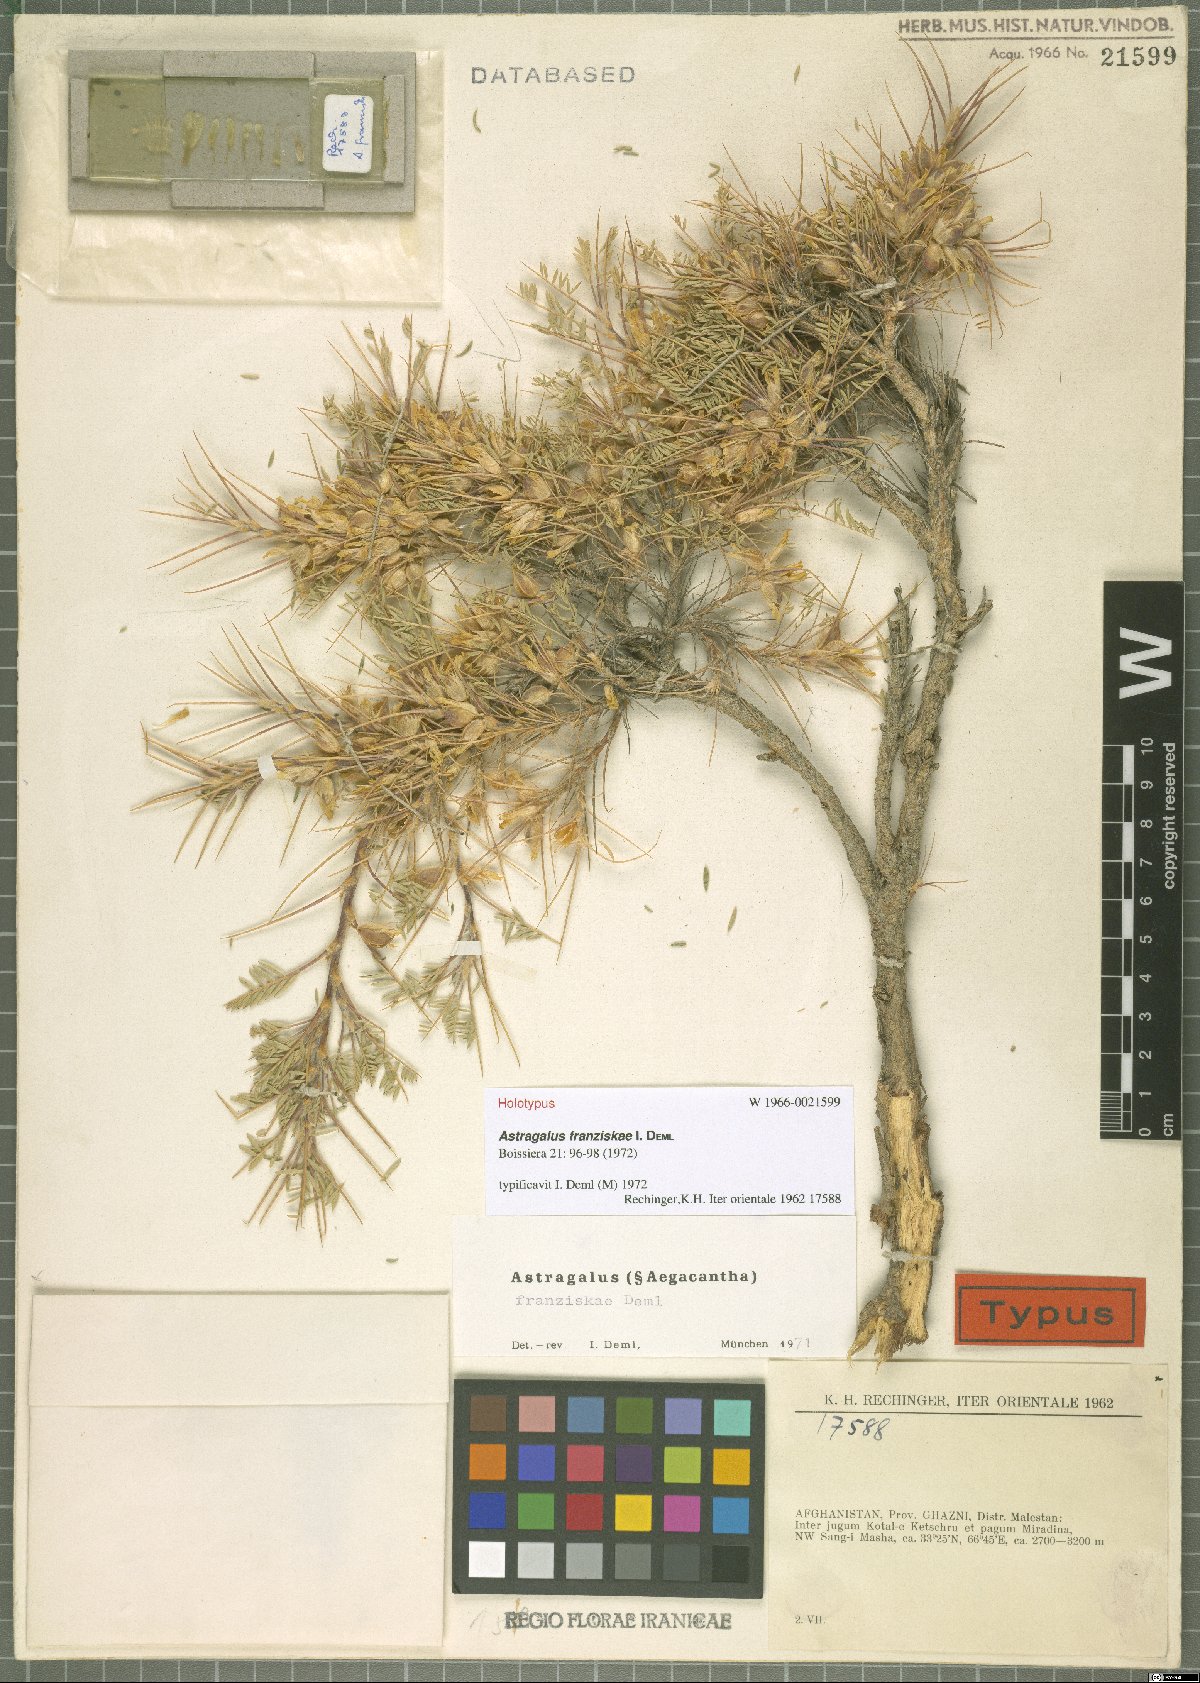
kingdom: Plantae
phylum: Tracheophyta
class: Magnoliopsida
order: Fabales
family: Fabaceae
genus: Astragalus
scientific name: Astragalus franziskae
